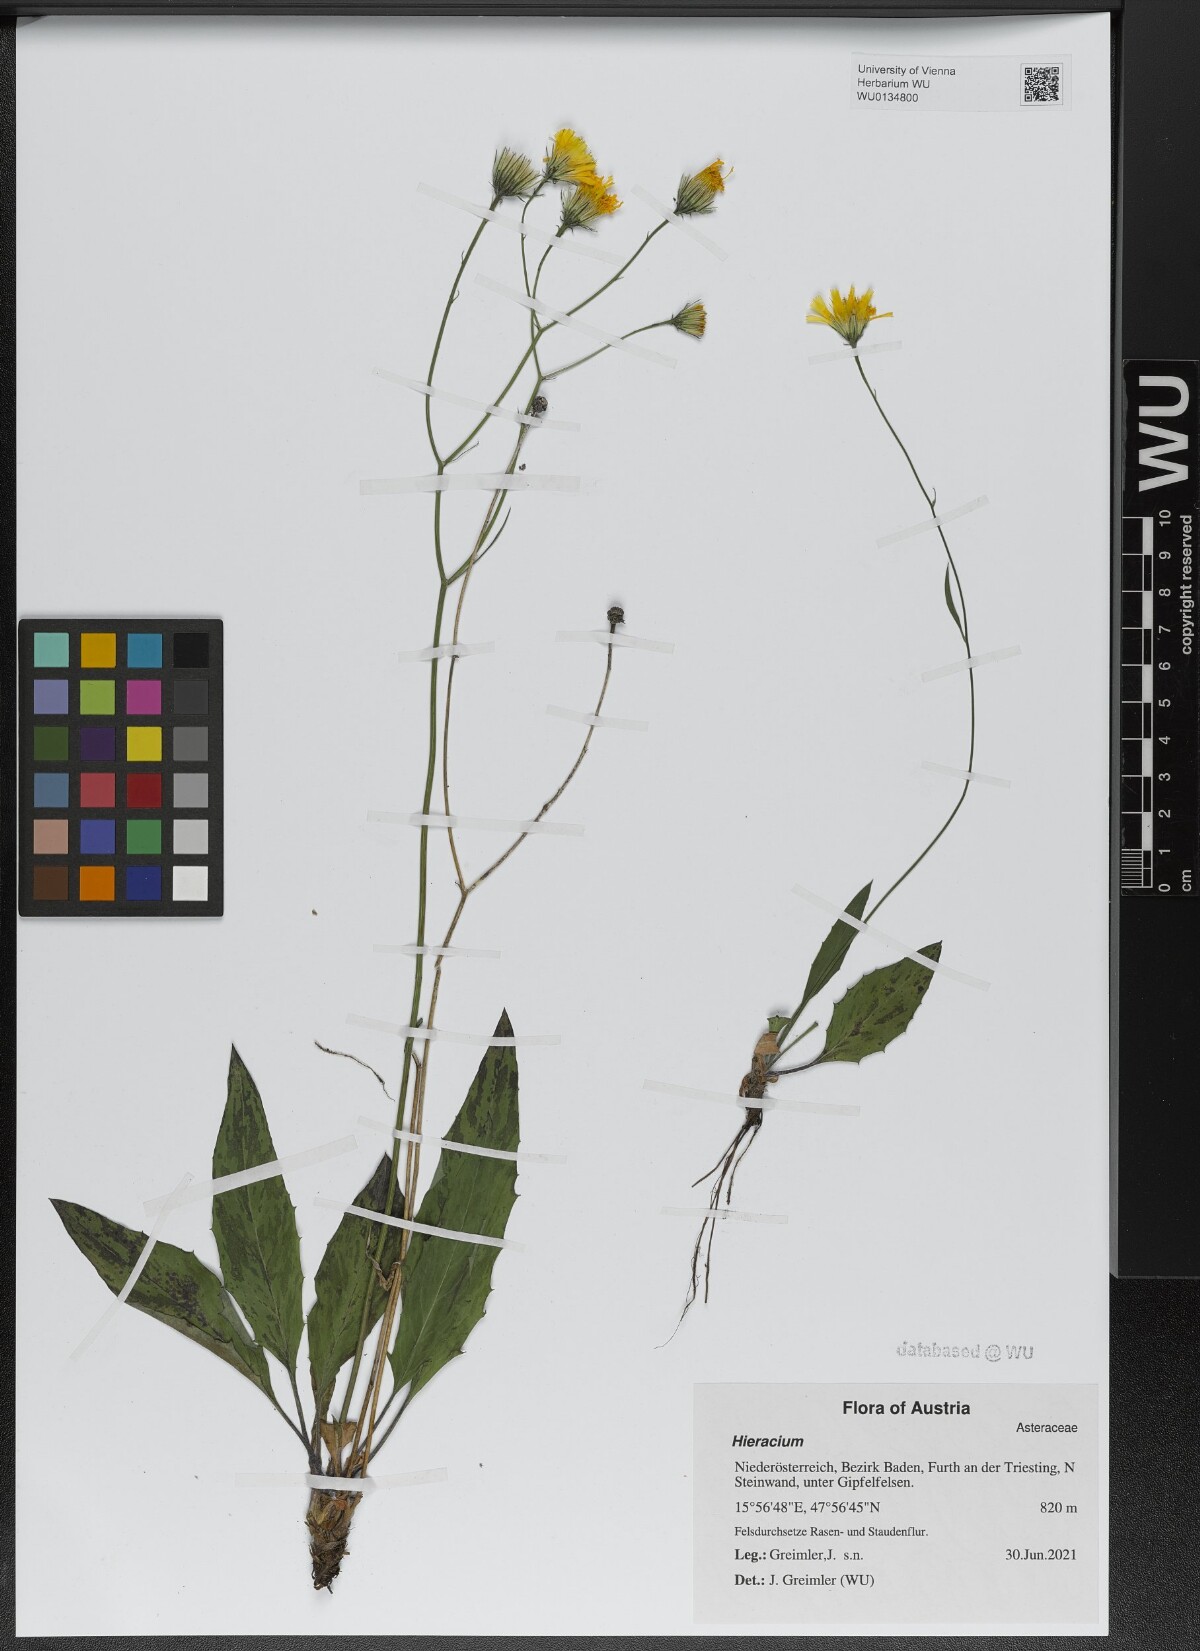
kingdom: Plantae
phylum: Tracheophyta
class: Magnoliopsida
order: Asterales
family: Asteraceae
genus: Hieracium
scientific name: Hieracium dollineri
